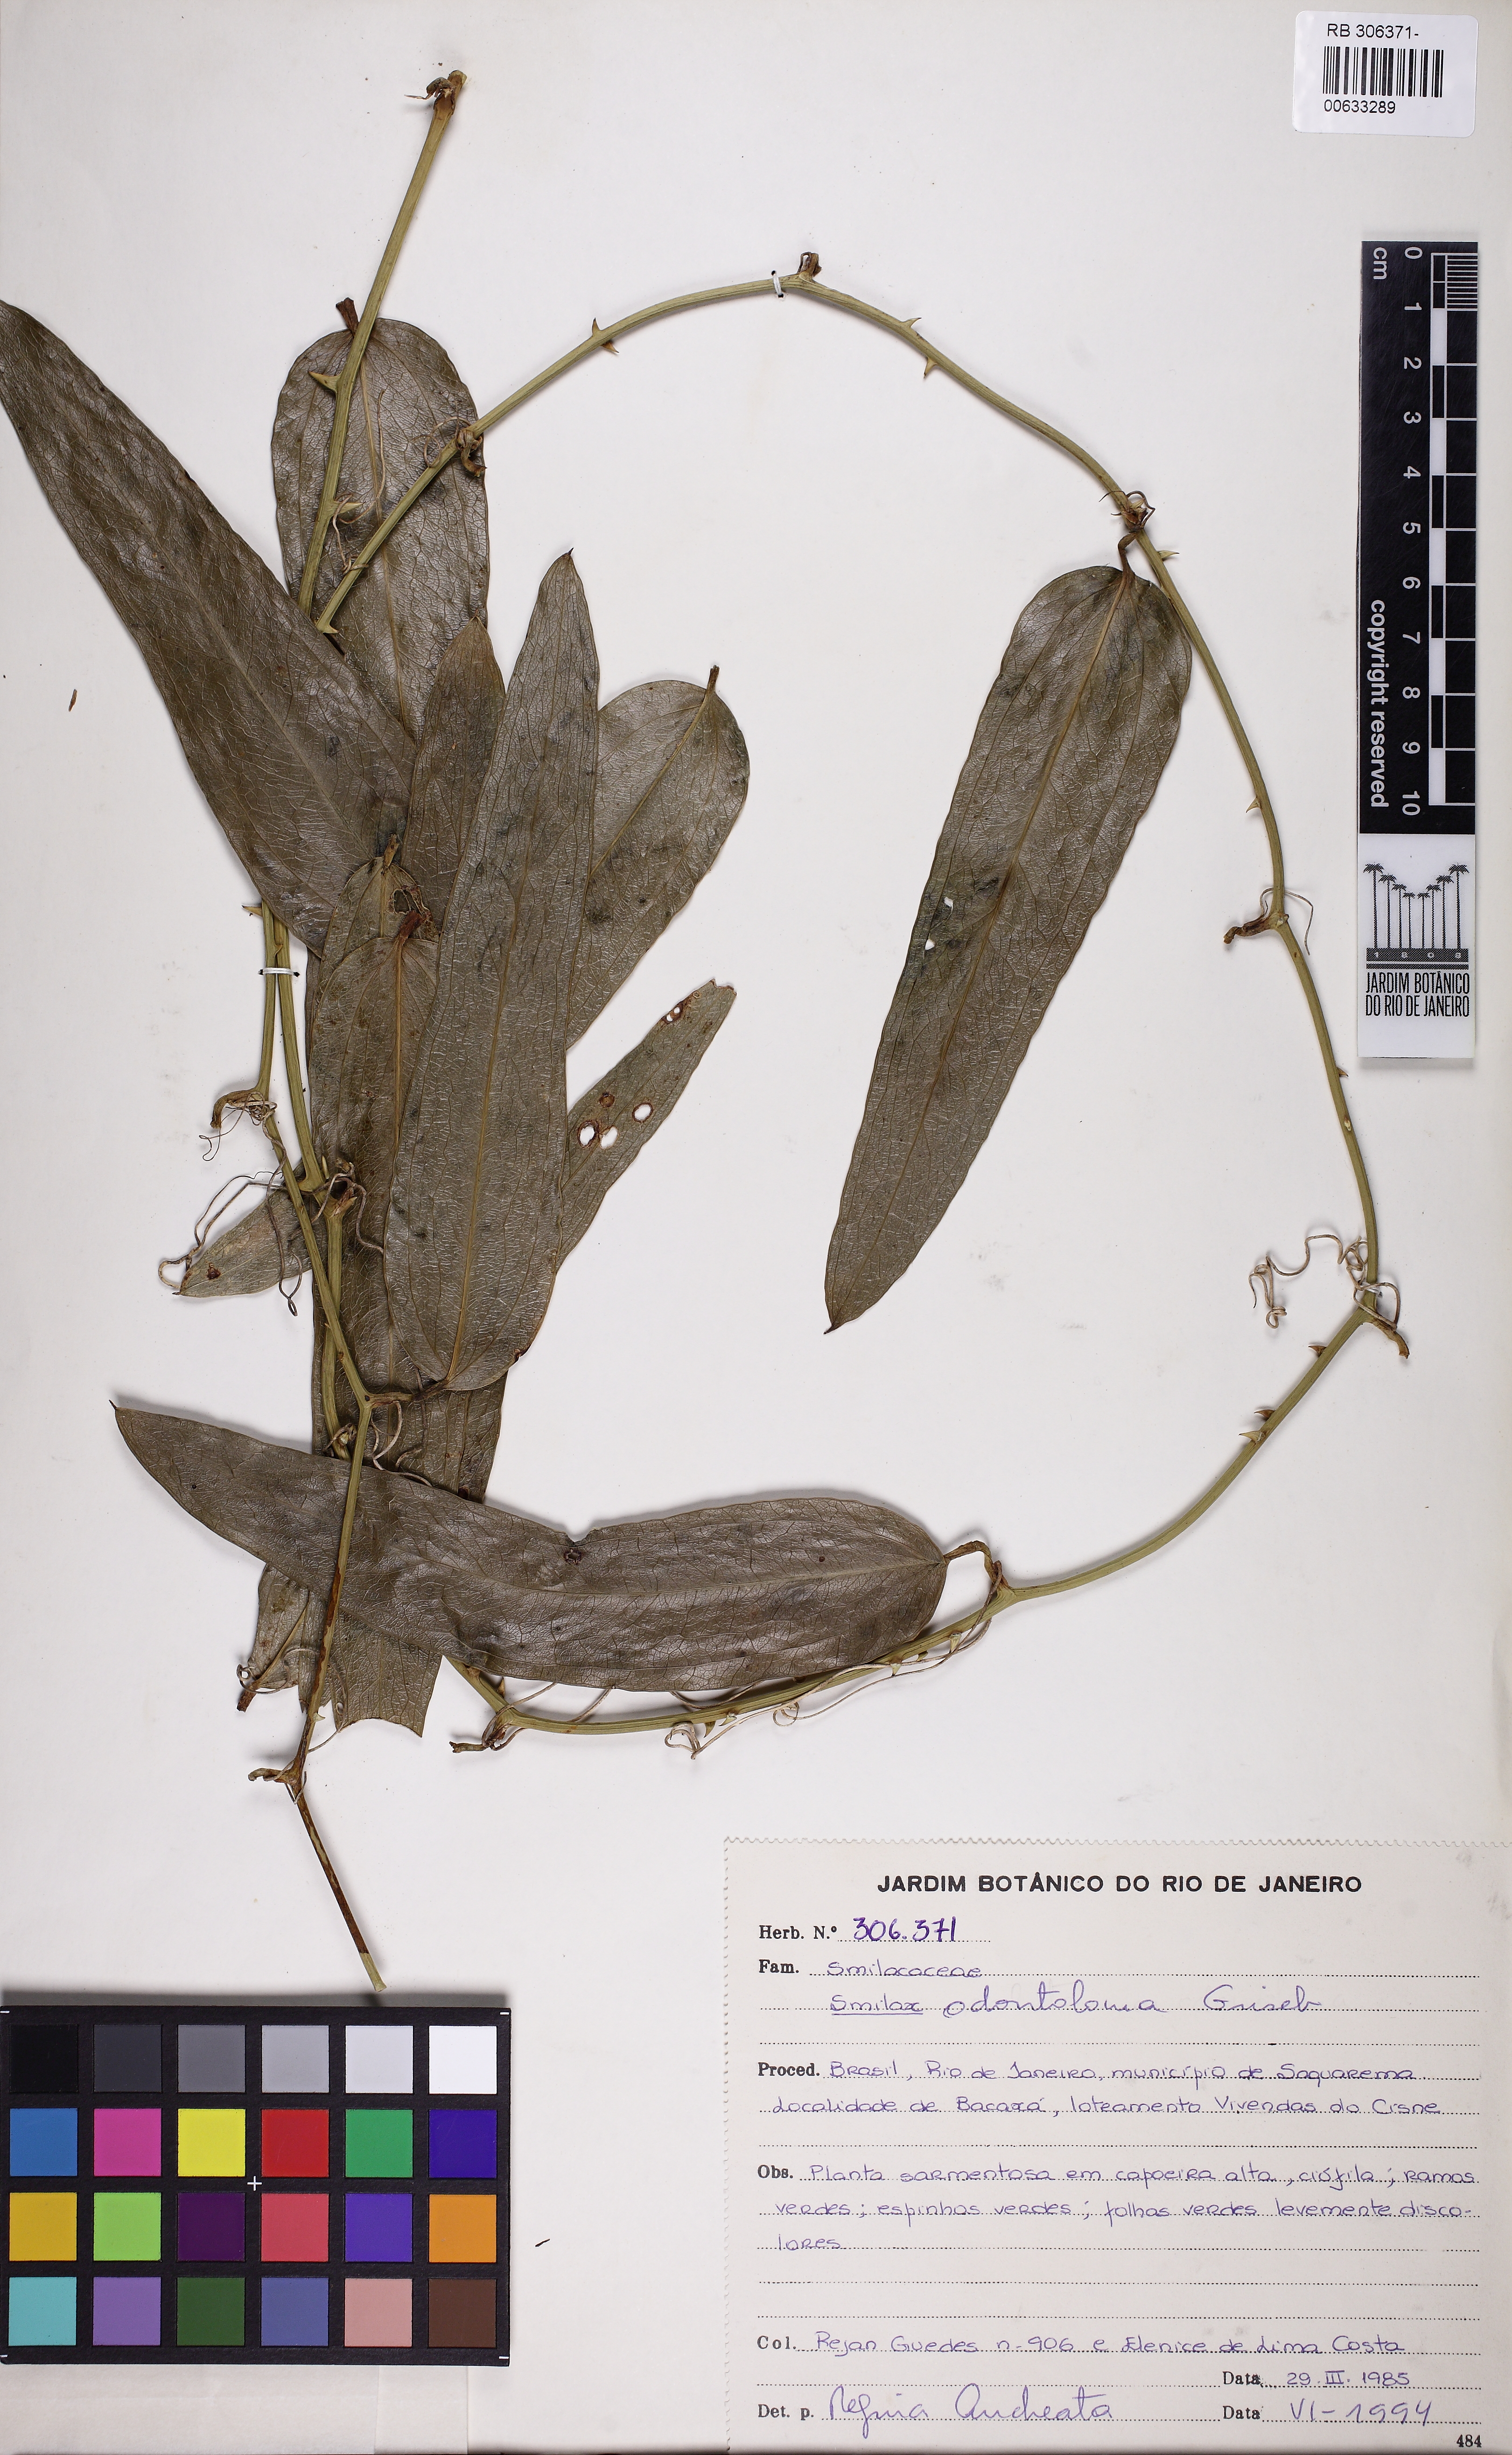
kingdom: Plantae
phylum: Tracheophyta
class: Liliopsida
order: Liliales
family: Smilacaceae
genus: Smilax
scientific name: Smilax subsessiliflora
